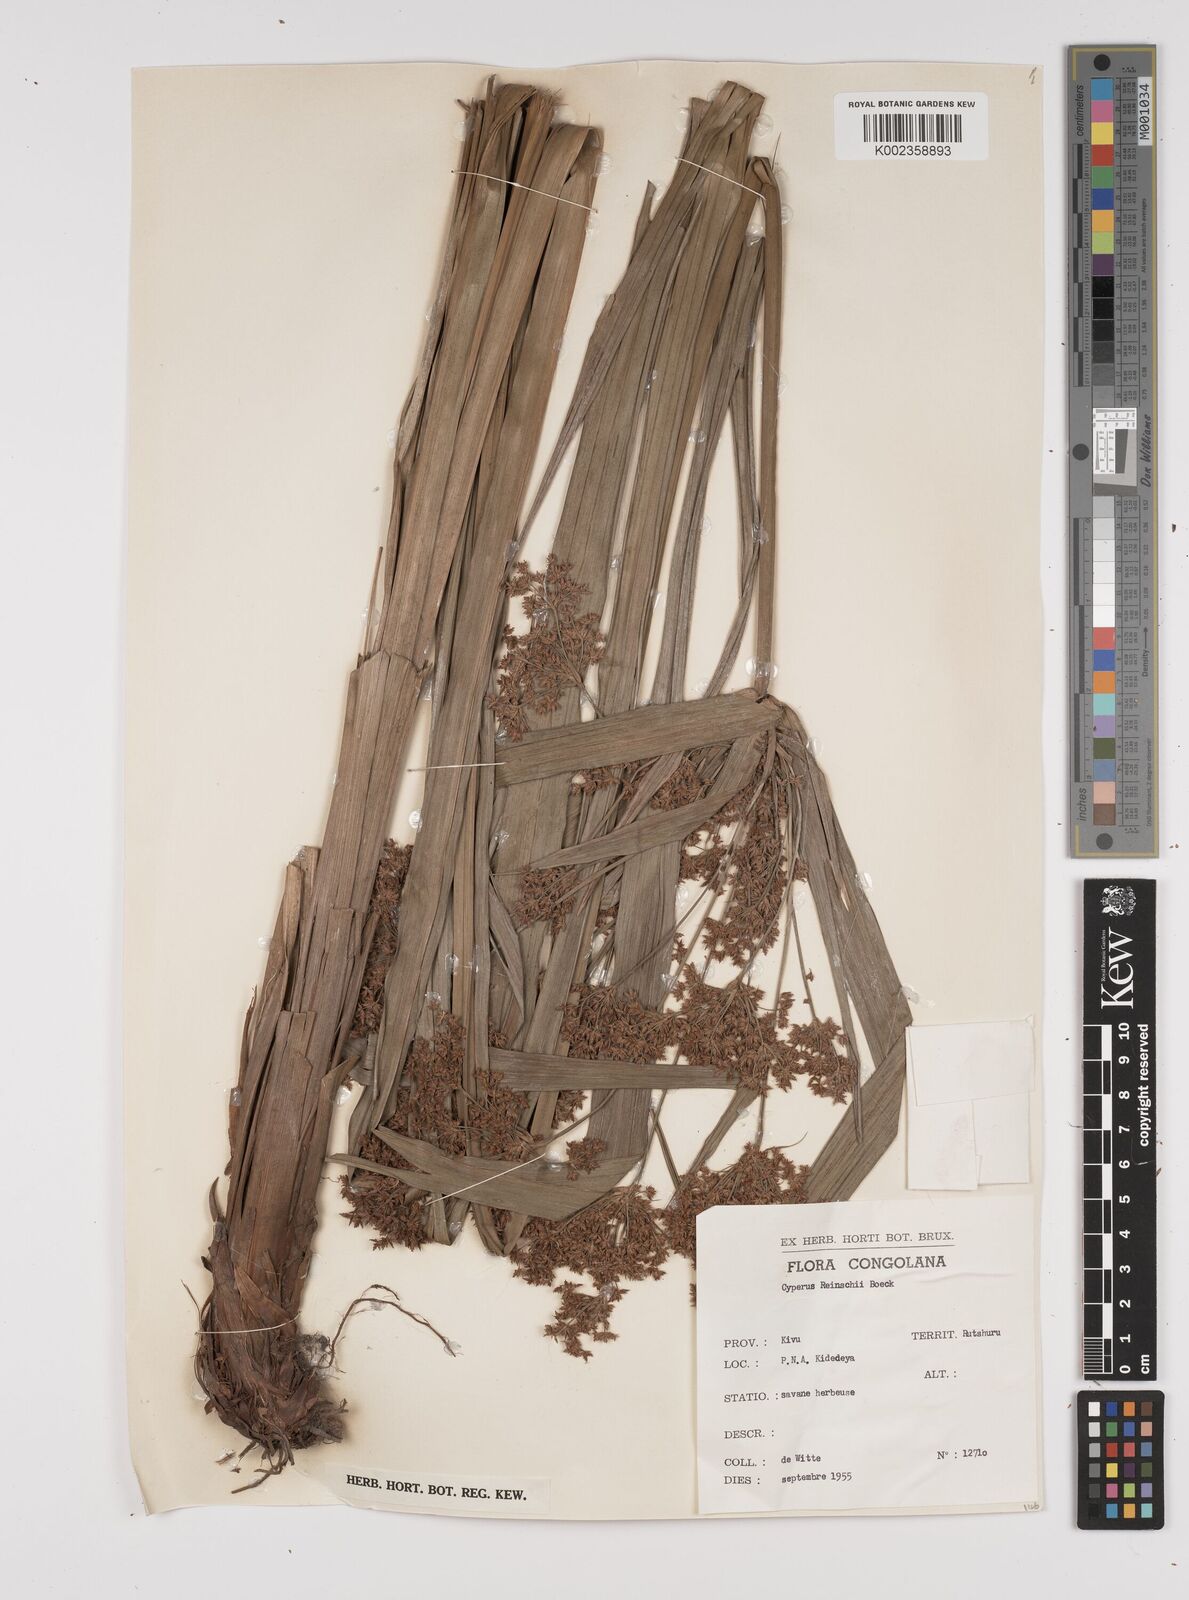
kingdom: Plantae
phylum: Tracheophyta
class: Liliopsida
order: Poales
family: Cyperaceae
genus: Cyperus
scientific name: Cyperus renschii
